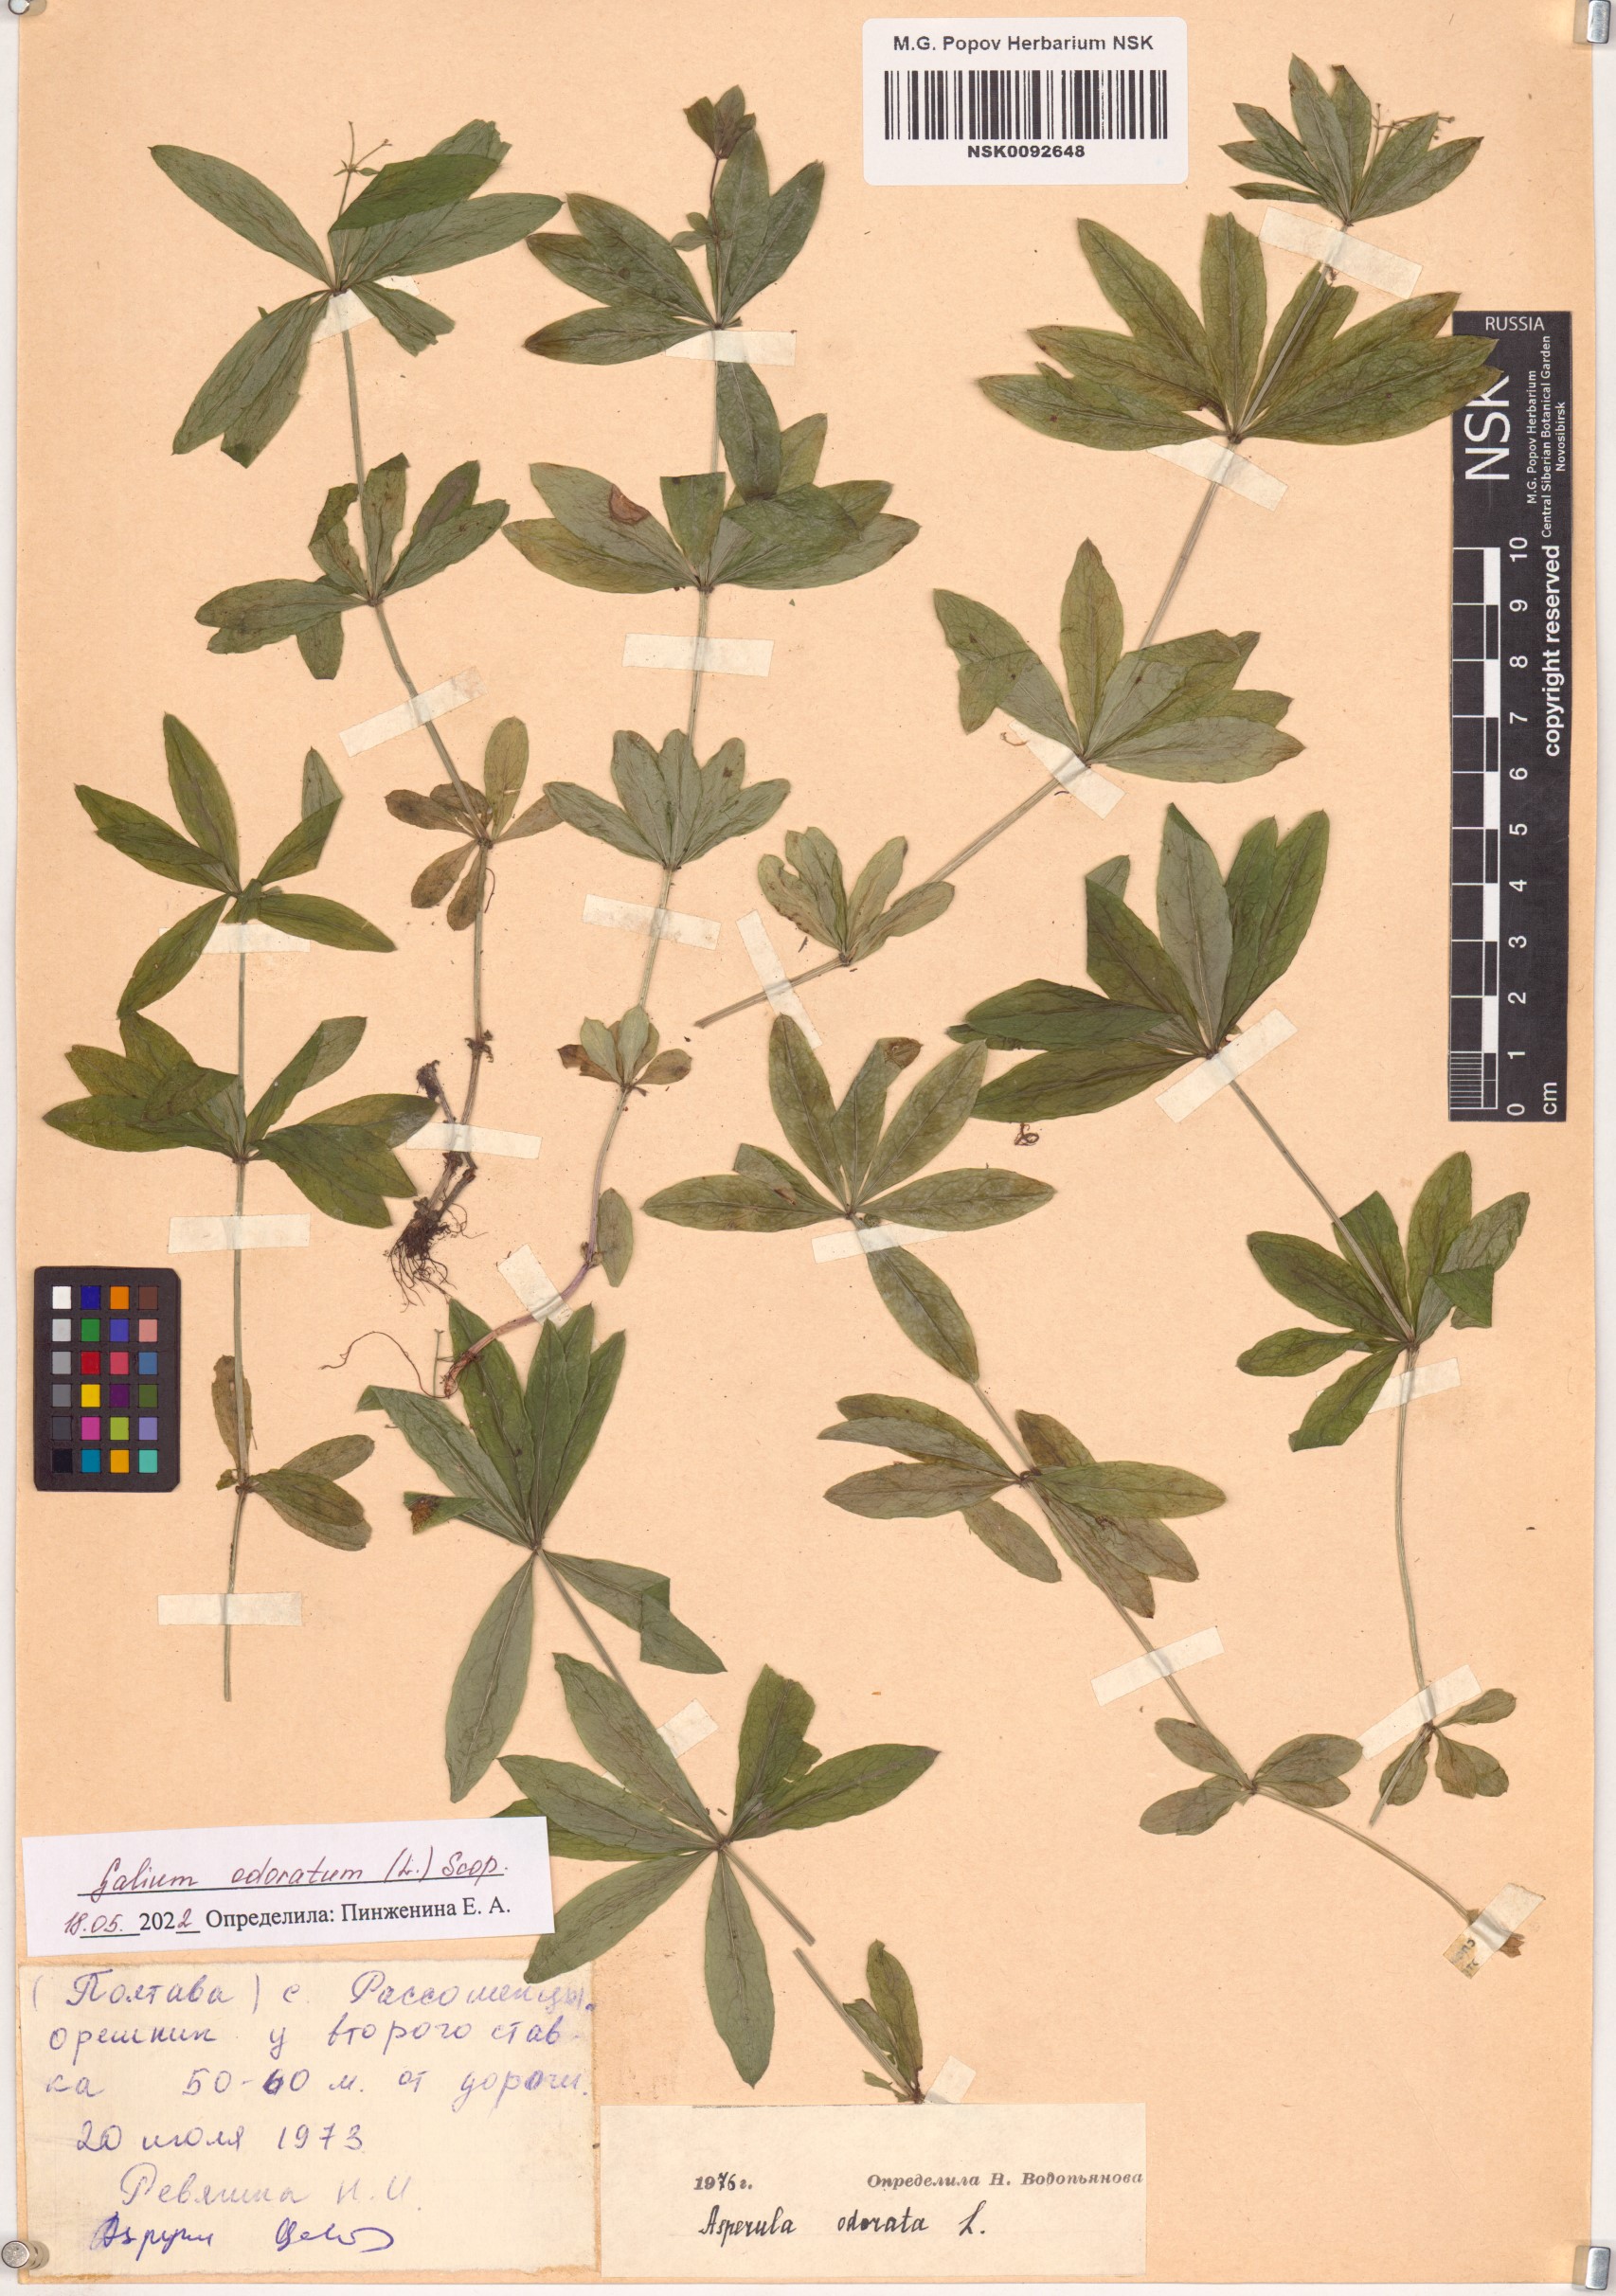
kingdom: Plantae
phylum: Tracheophyta
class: Magnoliopsida
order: Gentianales
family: Rubiaceae
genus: Galium
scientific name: Galium odoratum
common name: Sweet woodruff
